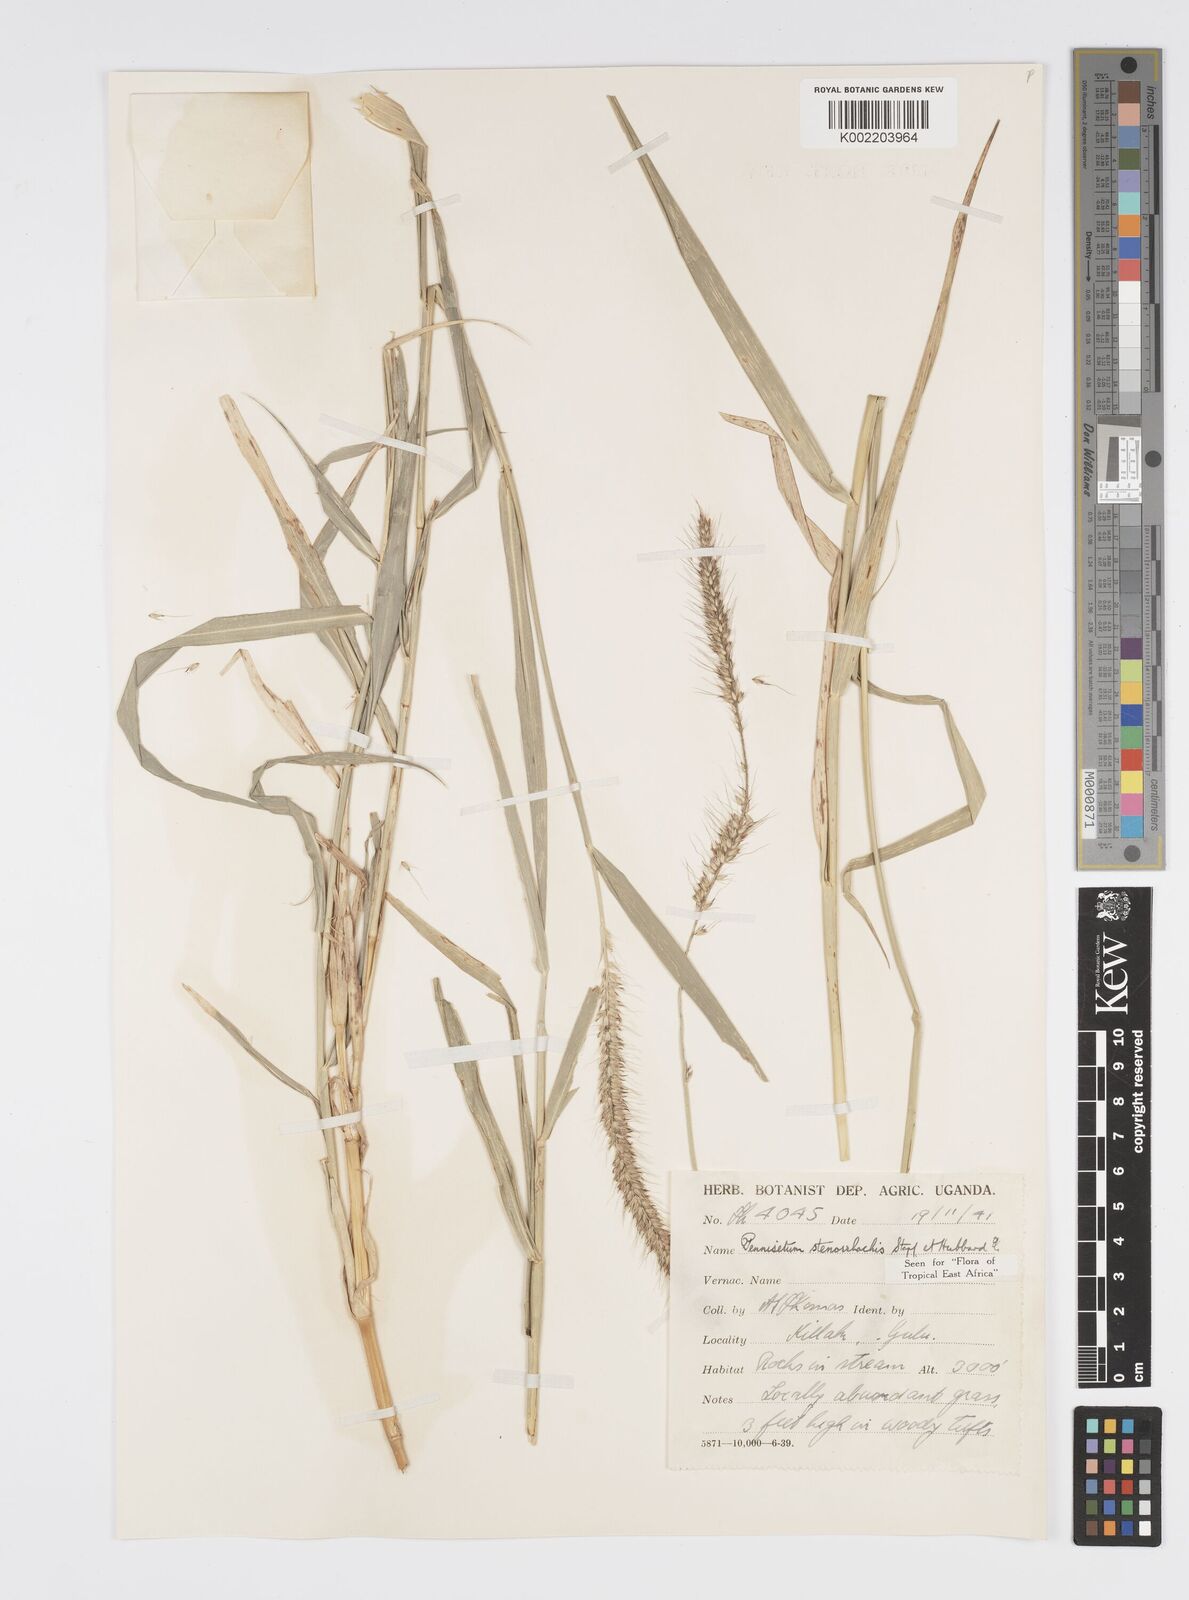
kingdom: Plantae
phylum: Tracheophyta
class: Liliopsida
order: Poales
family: Poaceae
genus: Cenchrus
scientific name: Cenchrus caudatus
